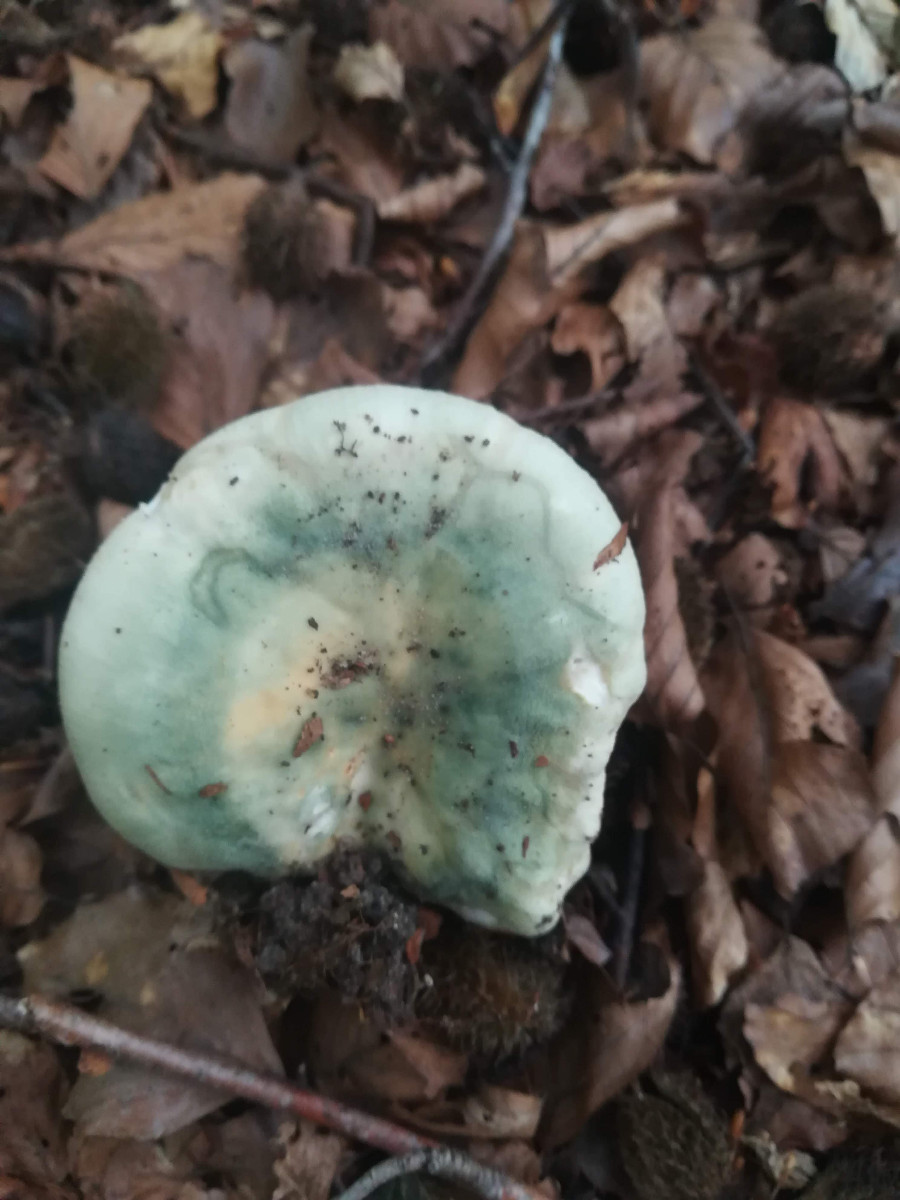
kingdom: Fungi
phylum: Basidiomycota
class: Agaricomycetes
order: Russulales
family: Russulaceae
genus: Russula
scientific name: Russula virescens
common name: spanskgrøn skørhat
